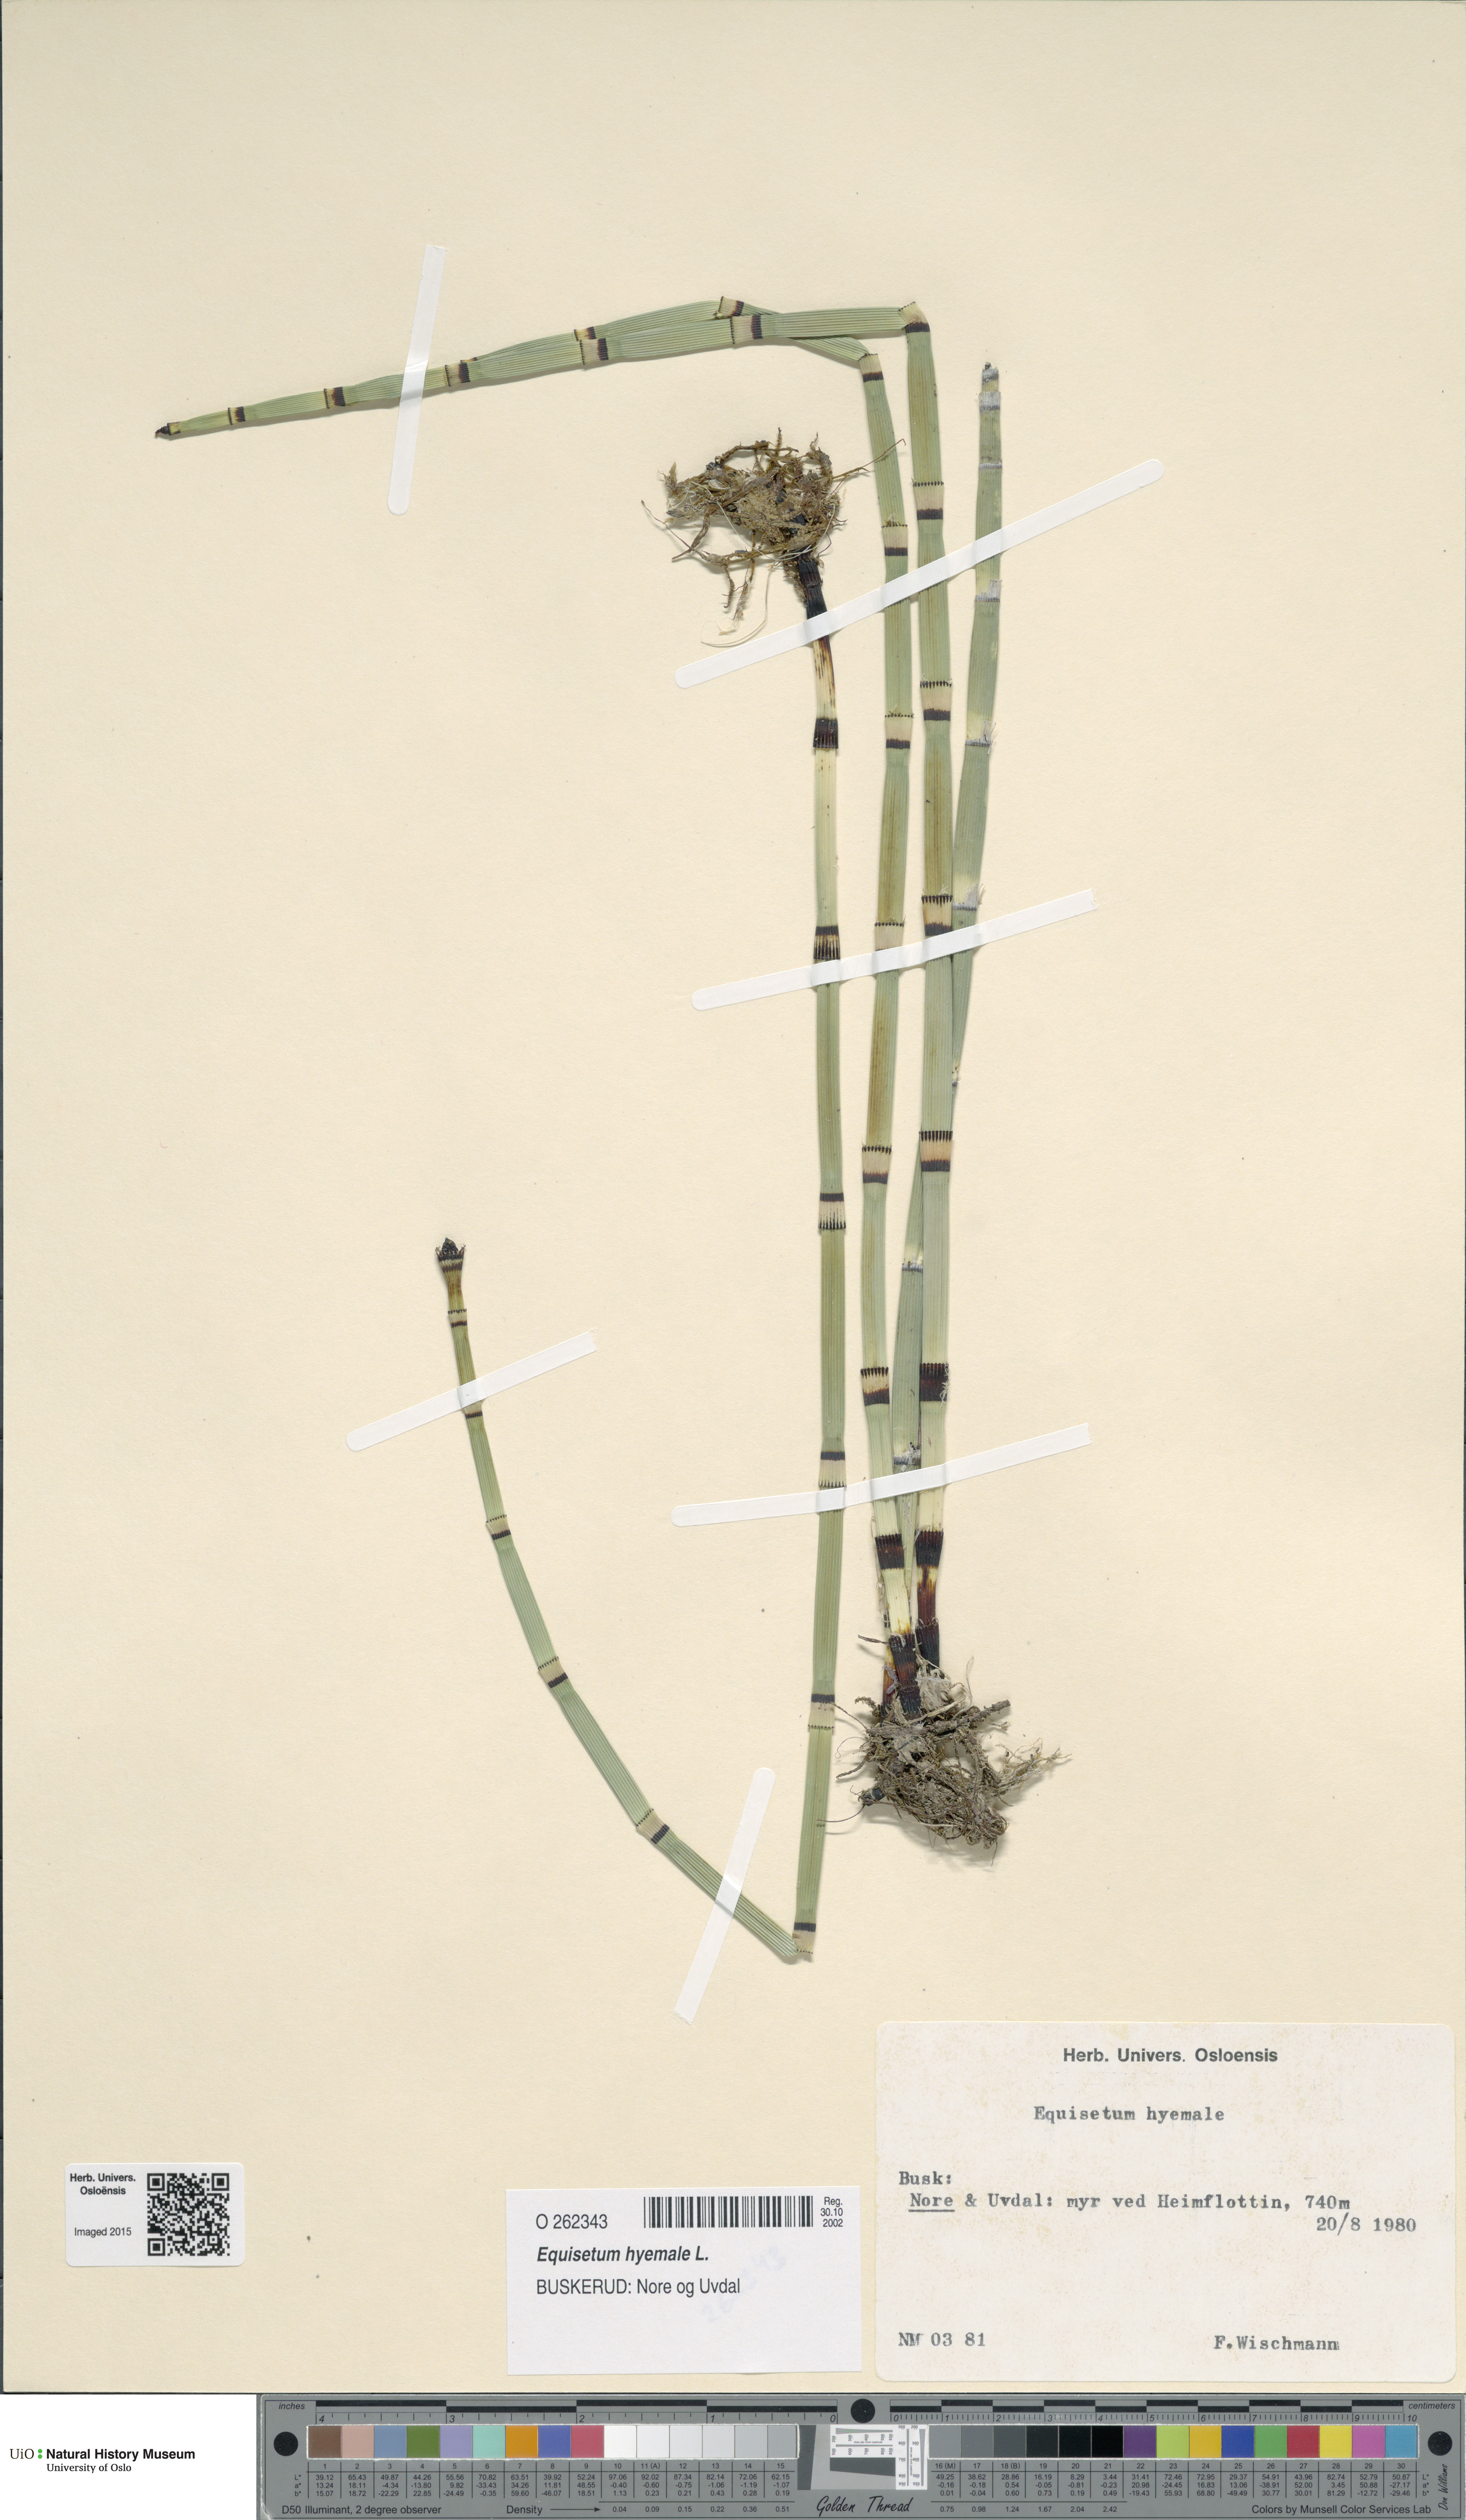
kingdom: Plantae
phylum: Tracheophyta
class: Polypodiopsida
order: Equisetales
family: Equisetaceae
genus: Equisetum
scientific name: Equisetum hyemale
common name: Rough horsetail
